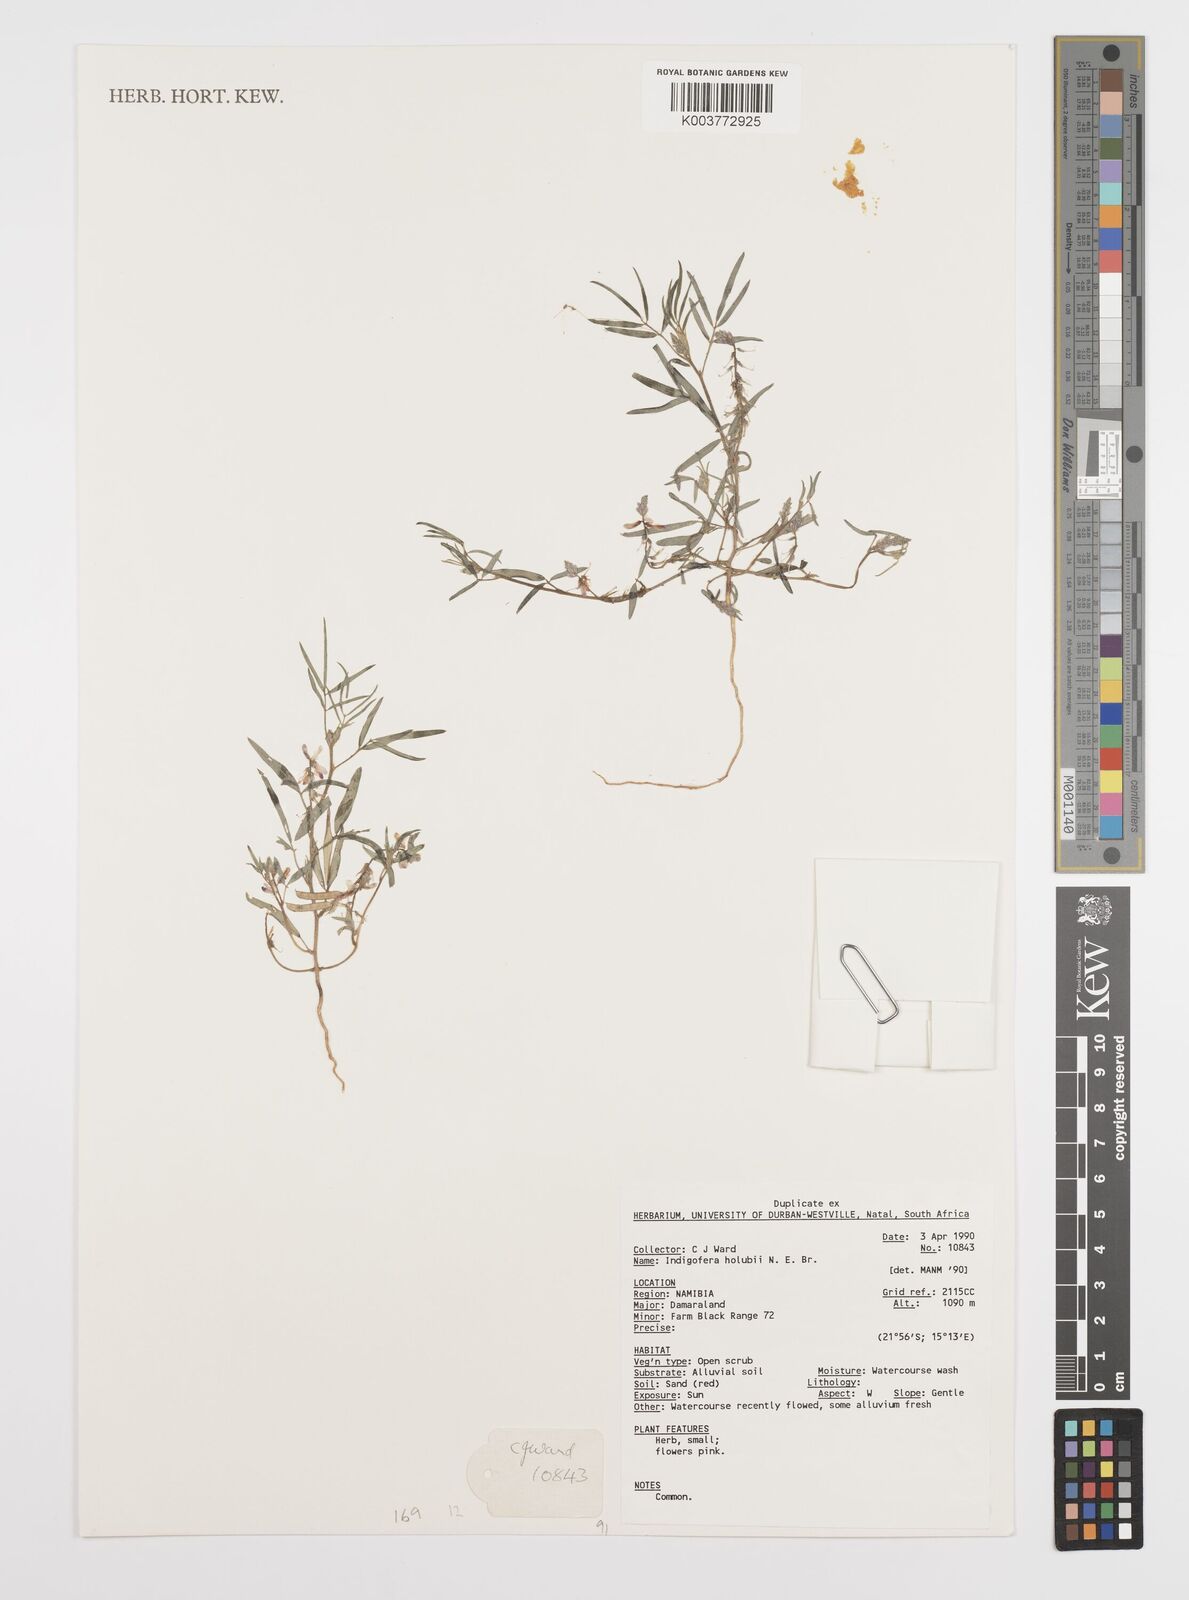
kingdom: Plantae
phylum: Tracheophyta
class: Magnoliopsida
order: Fabales
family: Fabaceae
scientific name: Fabaceae
